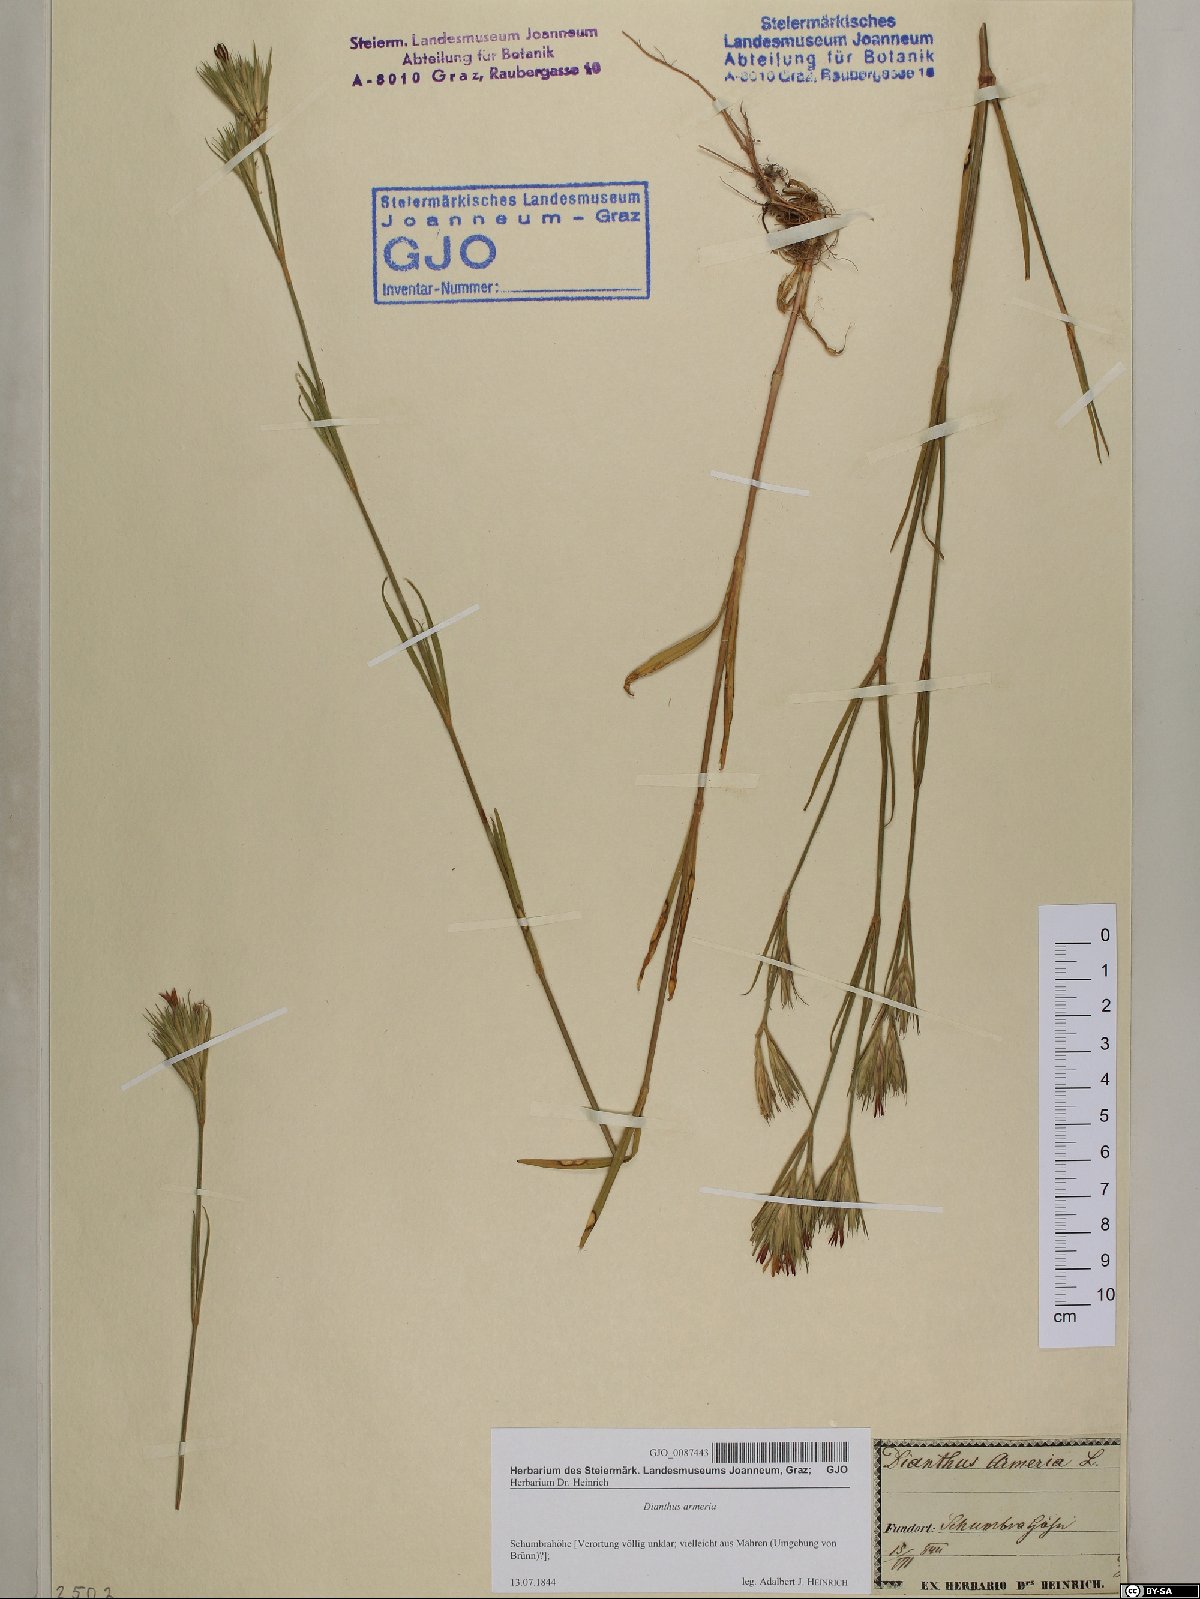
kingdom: Plantae
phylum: Tracheophyta
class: Magnoliopsida
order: Caryophyllales
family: Caryophyllaceae
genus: Dianthus
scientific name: Dianthus armeria
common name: Deptford pink
